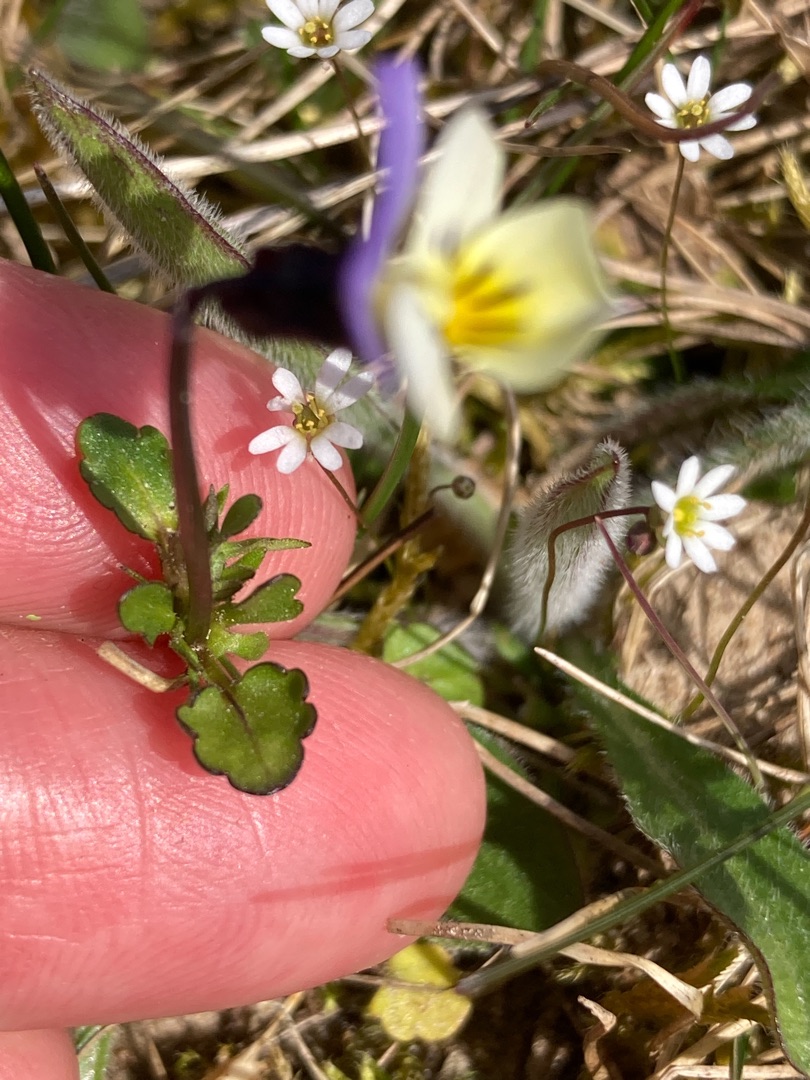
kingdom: Plantae
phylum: Tracheophyta
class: Magnoliopsida
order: Malpighiales
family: Violaceae
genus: Viola
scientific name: Viola tricolor
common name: Stedmoderblomst
